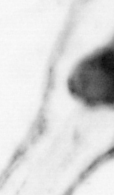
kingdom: Animalia
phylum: Chaetognatha
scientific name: Chaetognatha
